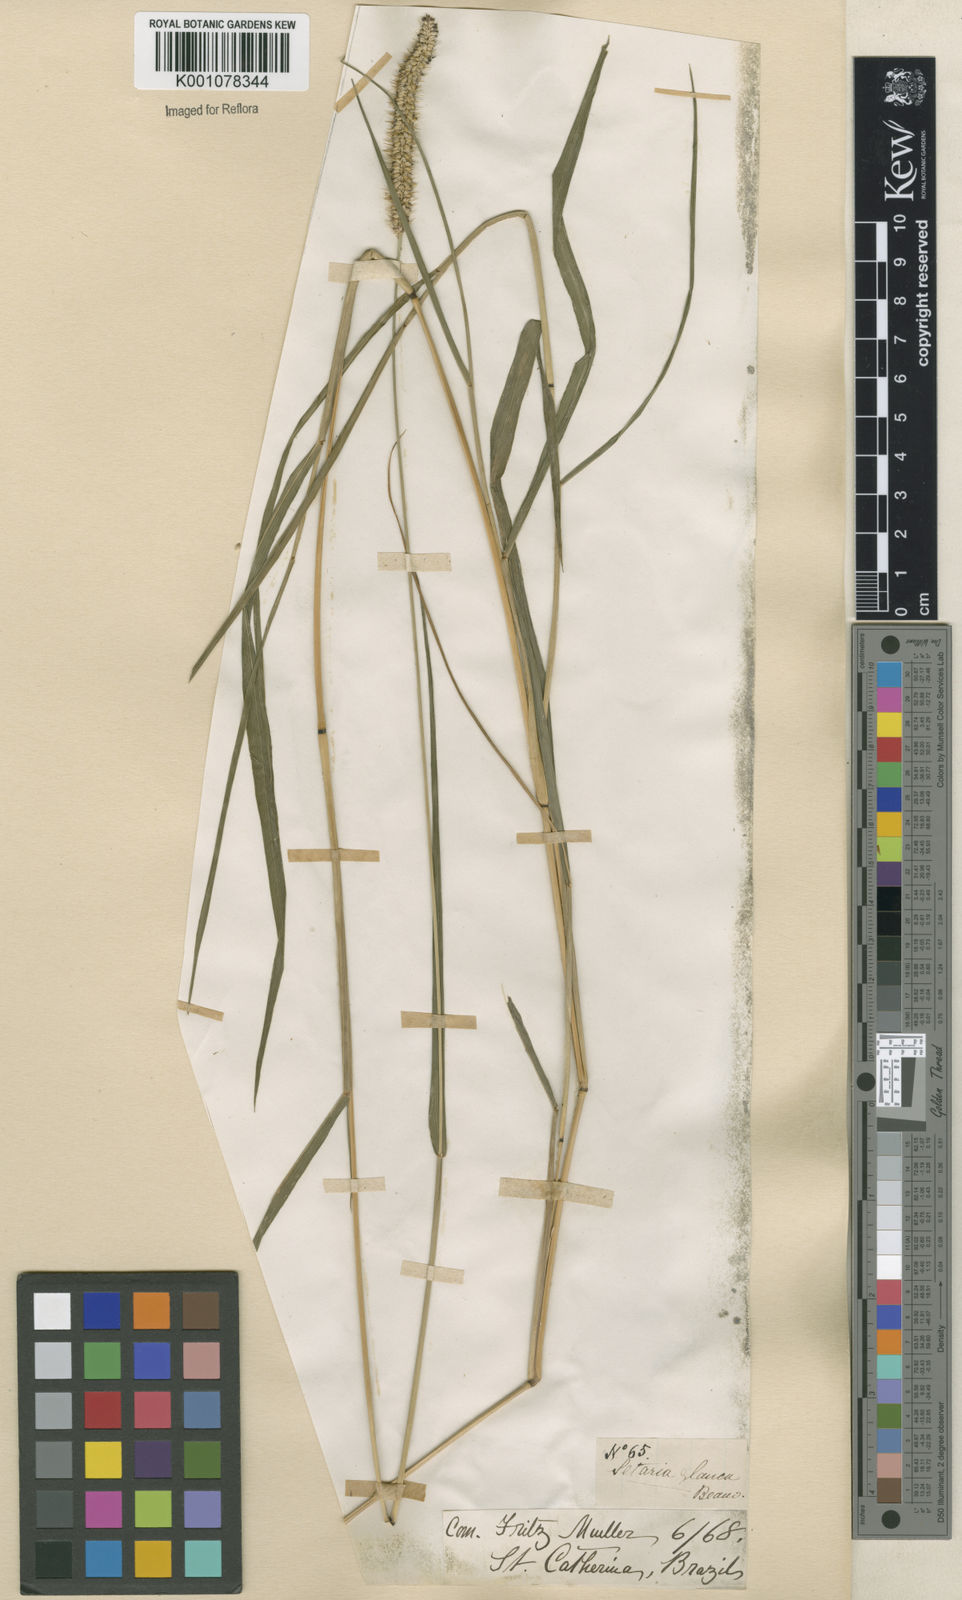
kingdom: Plantae
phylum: Tracheophyta
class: Liliopsida
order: Poales
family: Poaceae
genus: Setaria
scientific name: Setaria parviflora
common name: Knotroot bristle-grass
